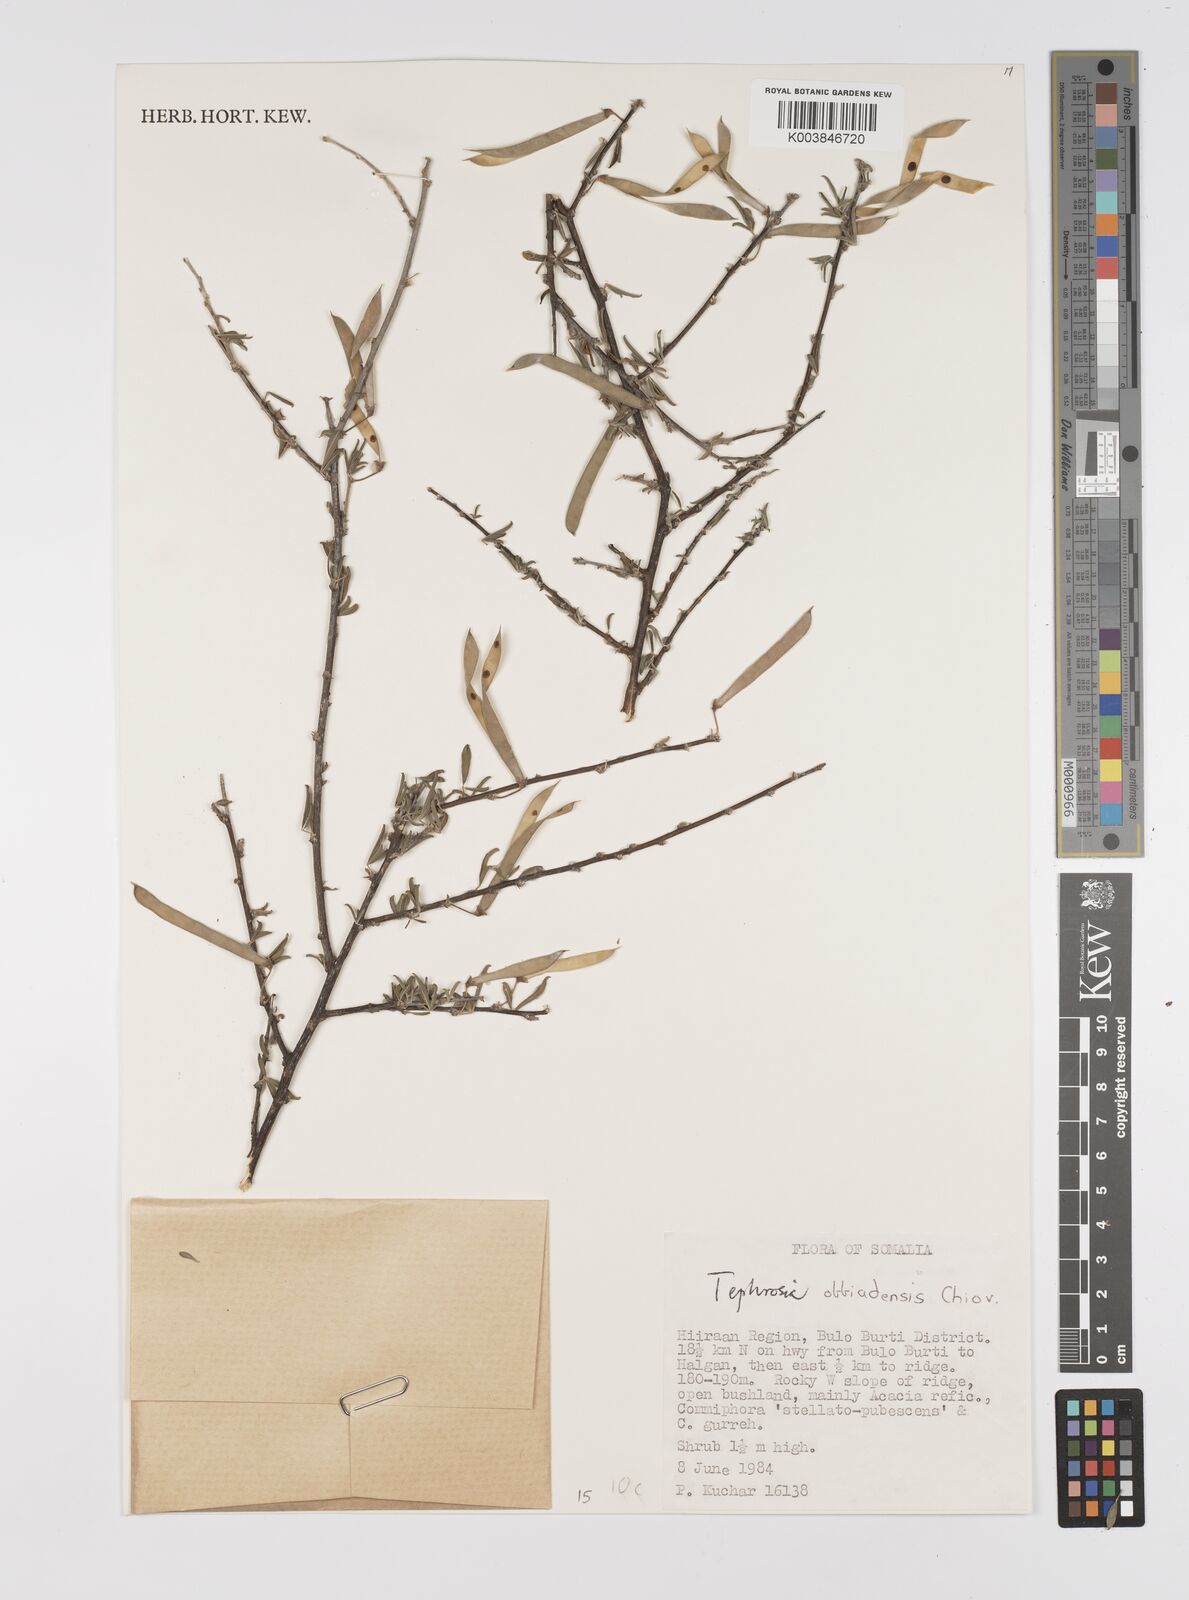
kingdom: Plantae
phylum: Tracheophyta
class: Magnoliopsida
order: Fabales
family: Fabaceae
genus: Tephrosia
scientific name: Tephrosia obbiadensis
